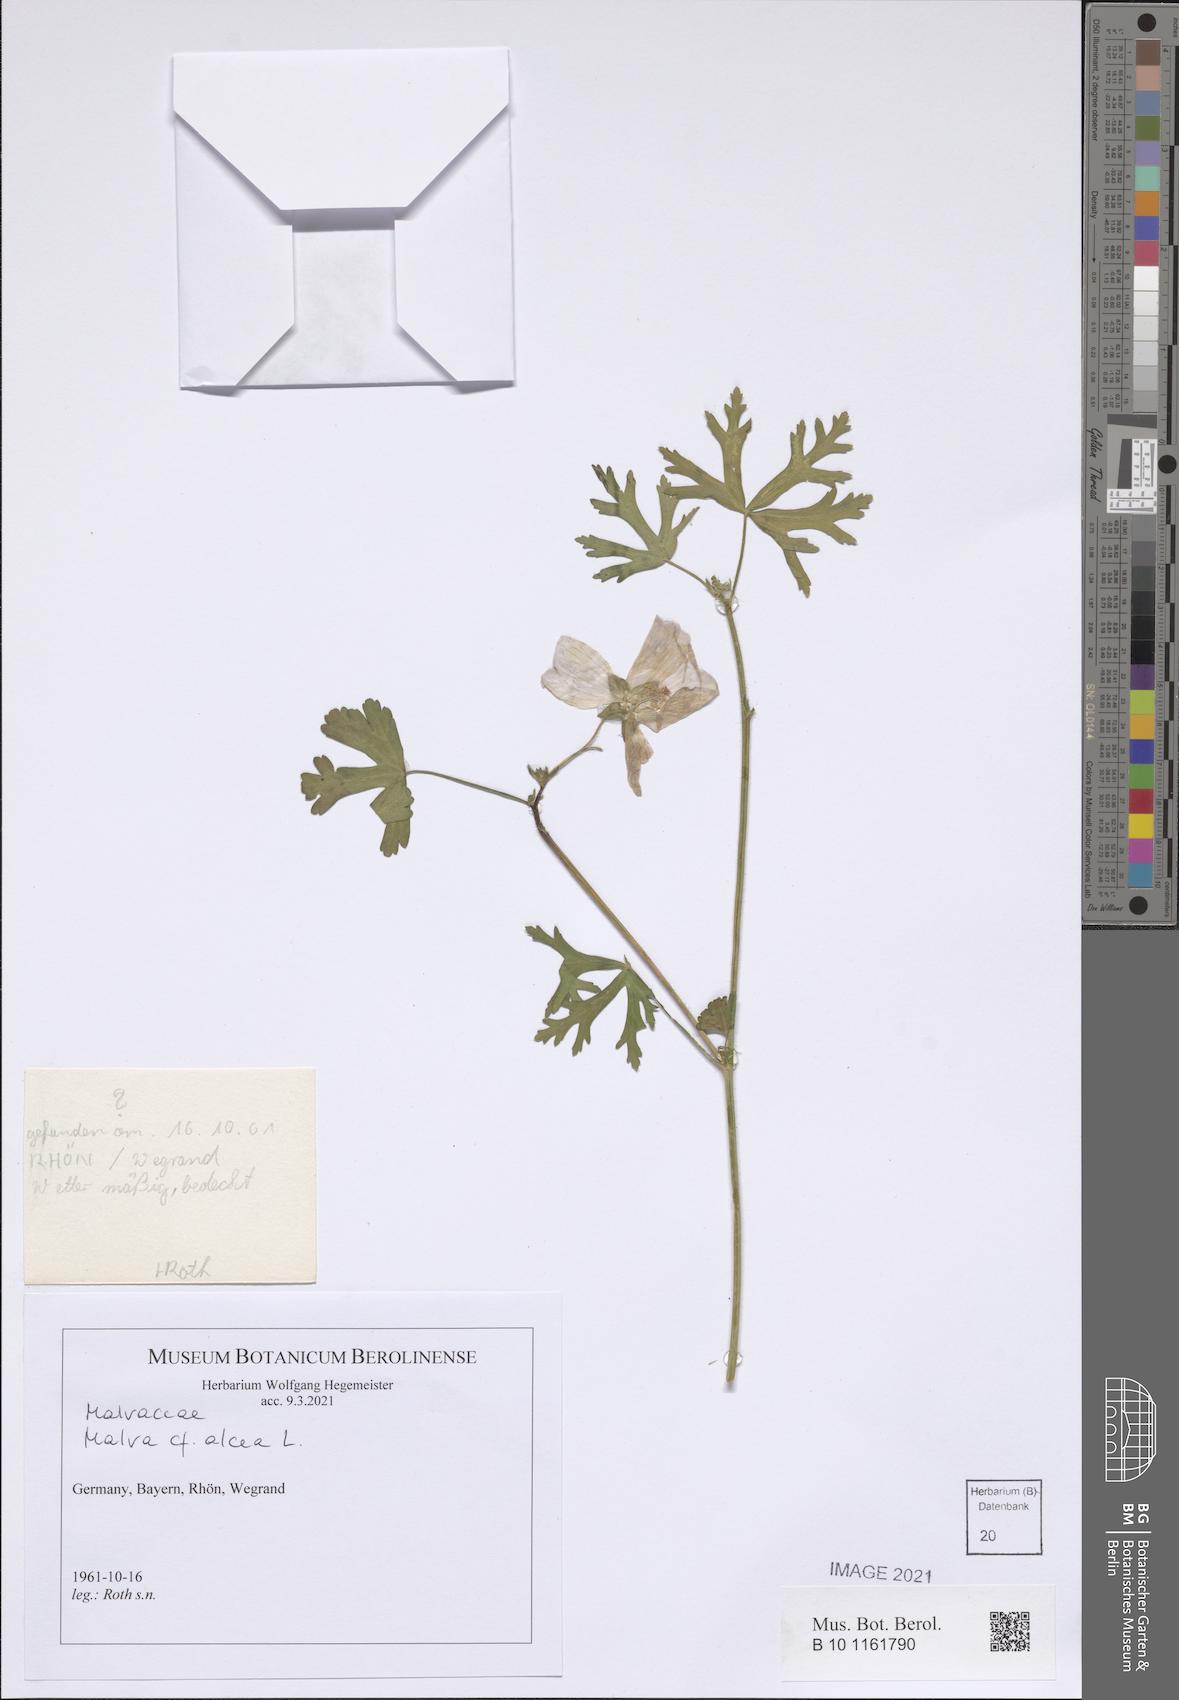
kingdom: Plantae
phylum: Tracheophyta
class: Magnoliopsida
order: Malvales
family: Malvaceae
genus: Malva
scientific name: Malva alcea
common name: Greater musk-mallow
